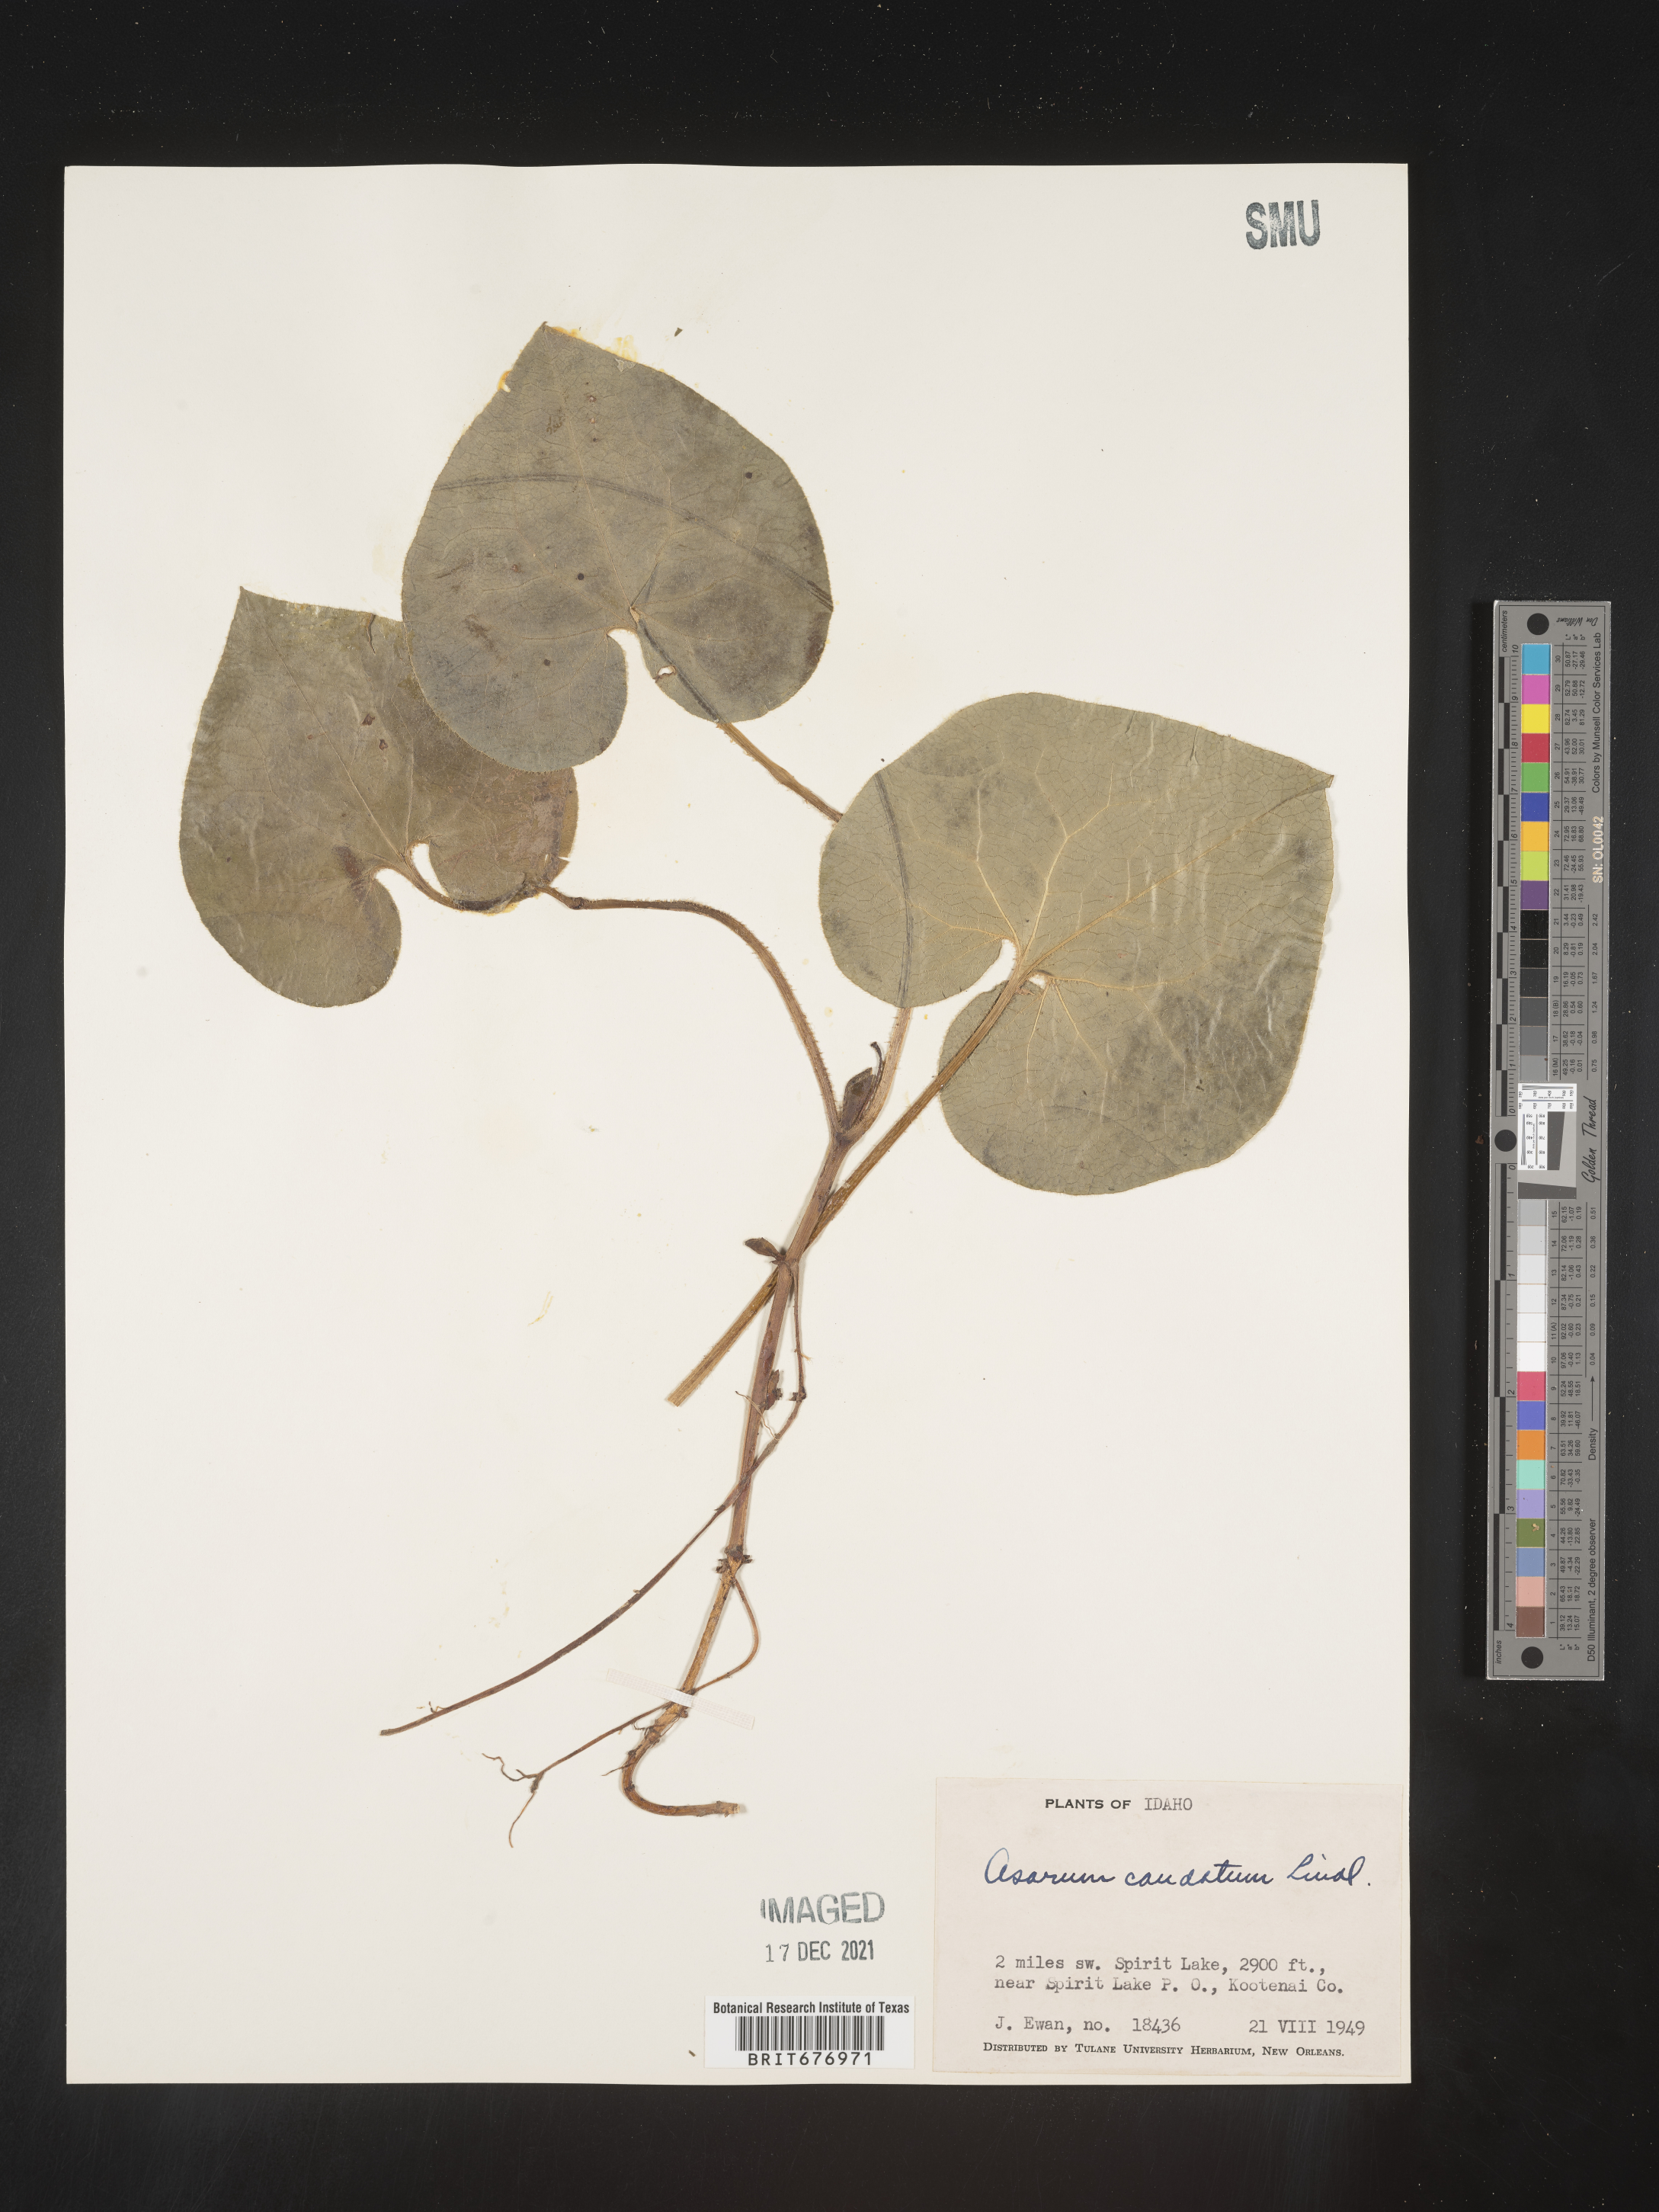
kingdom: Plantae
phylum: Tracheophyta
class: Magnoliopsida
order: Piperales
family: Aristolochiaceae
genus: Asarum
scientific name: Asarum caudatum
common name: Wild ginger
